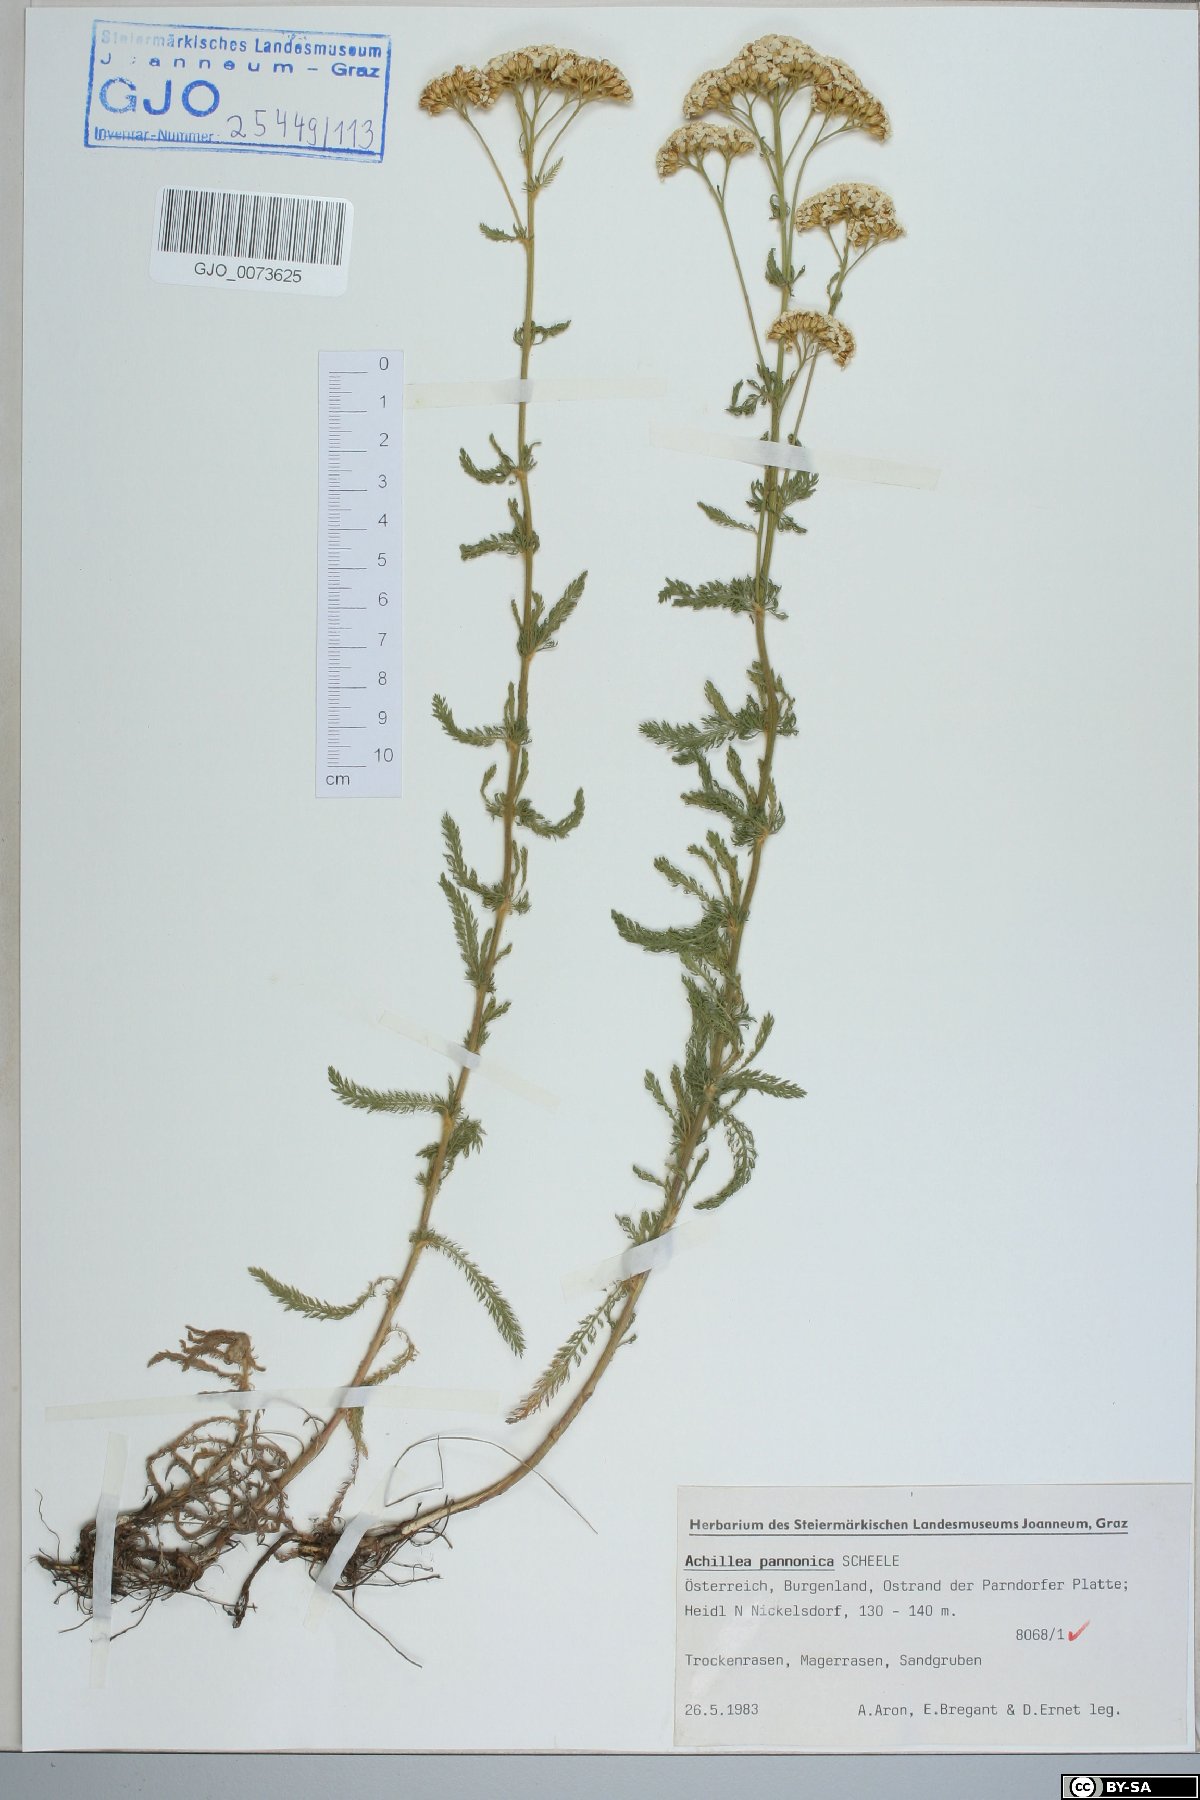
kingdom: Plantae
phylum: Tracheophyta
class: Magnoliopsida
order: Asterales
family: Asteraceae
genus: Achillea
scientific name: Achillea pannonica
